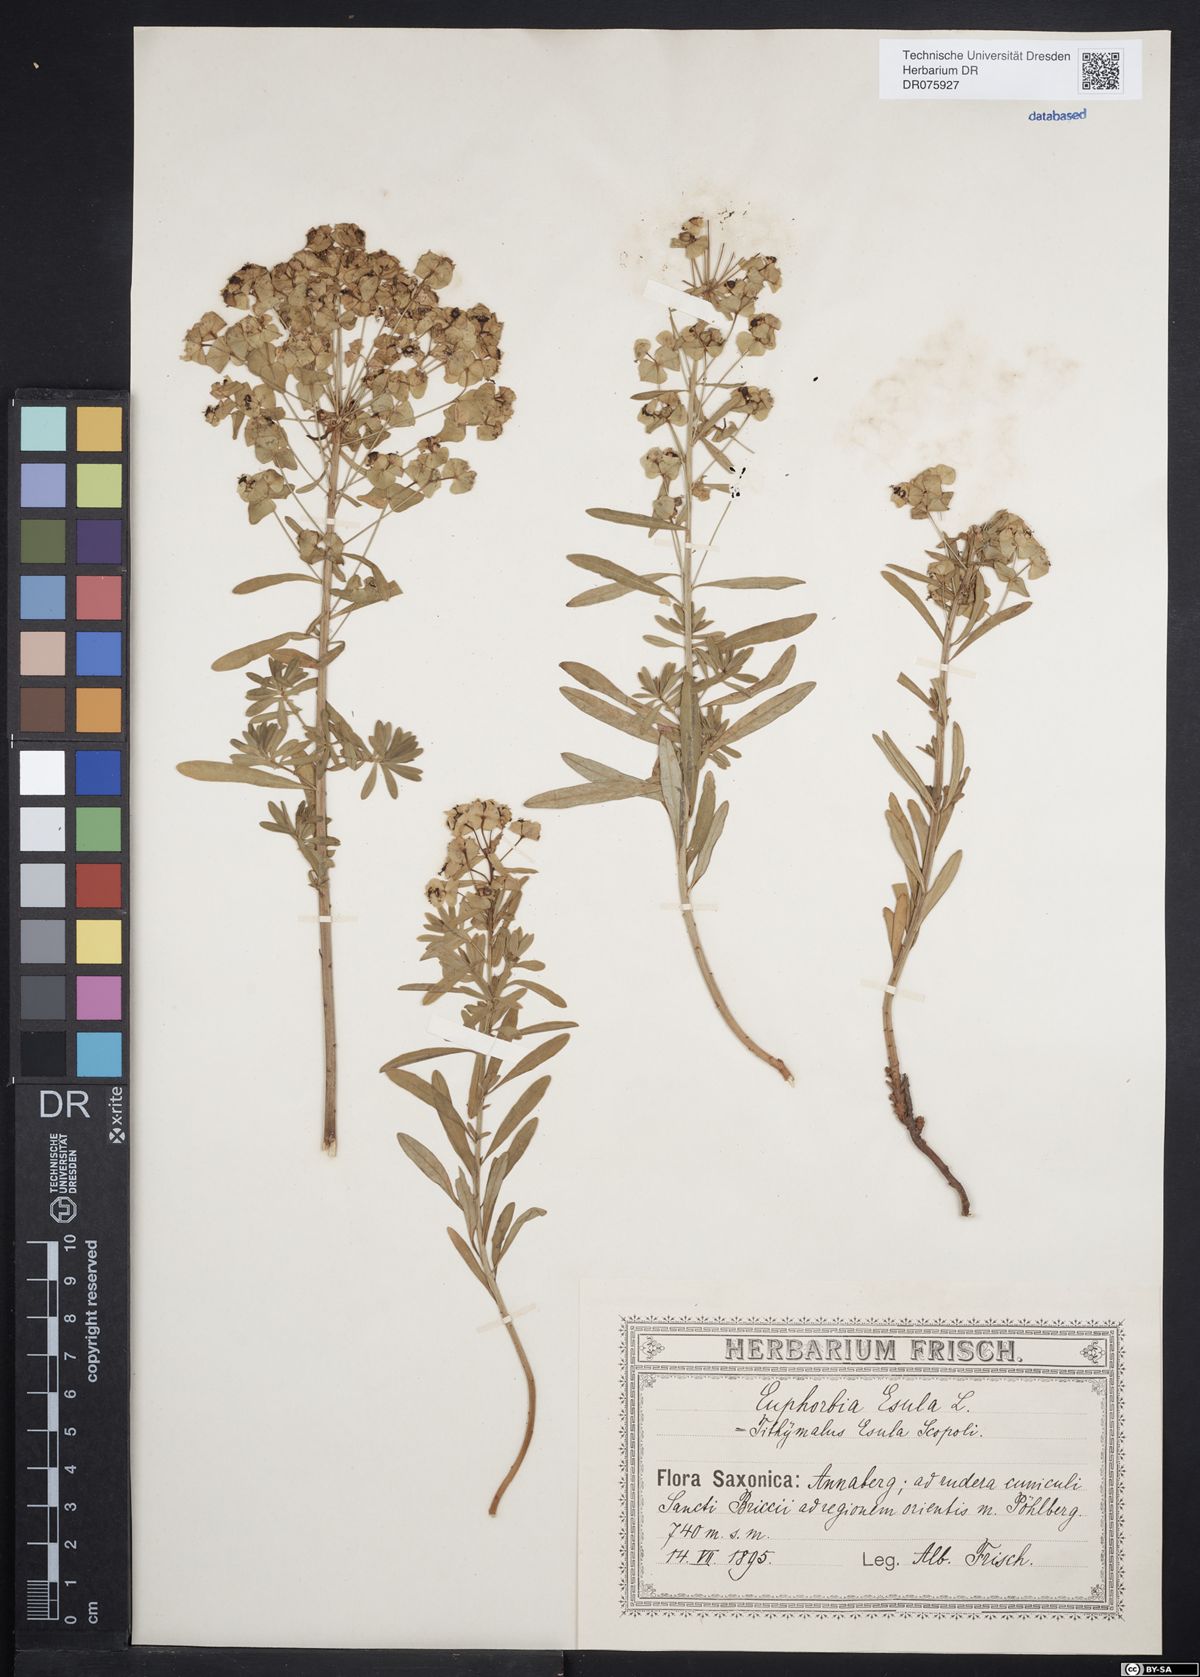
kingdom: Plantae
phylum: Tracheophyta
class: Magnoliopsida
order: Malpighiales
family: Euphorbiaceae
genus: Euphorbia
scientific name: Euphorbia esula
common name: Leafy spurge
